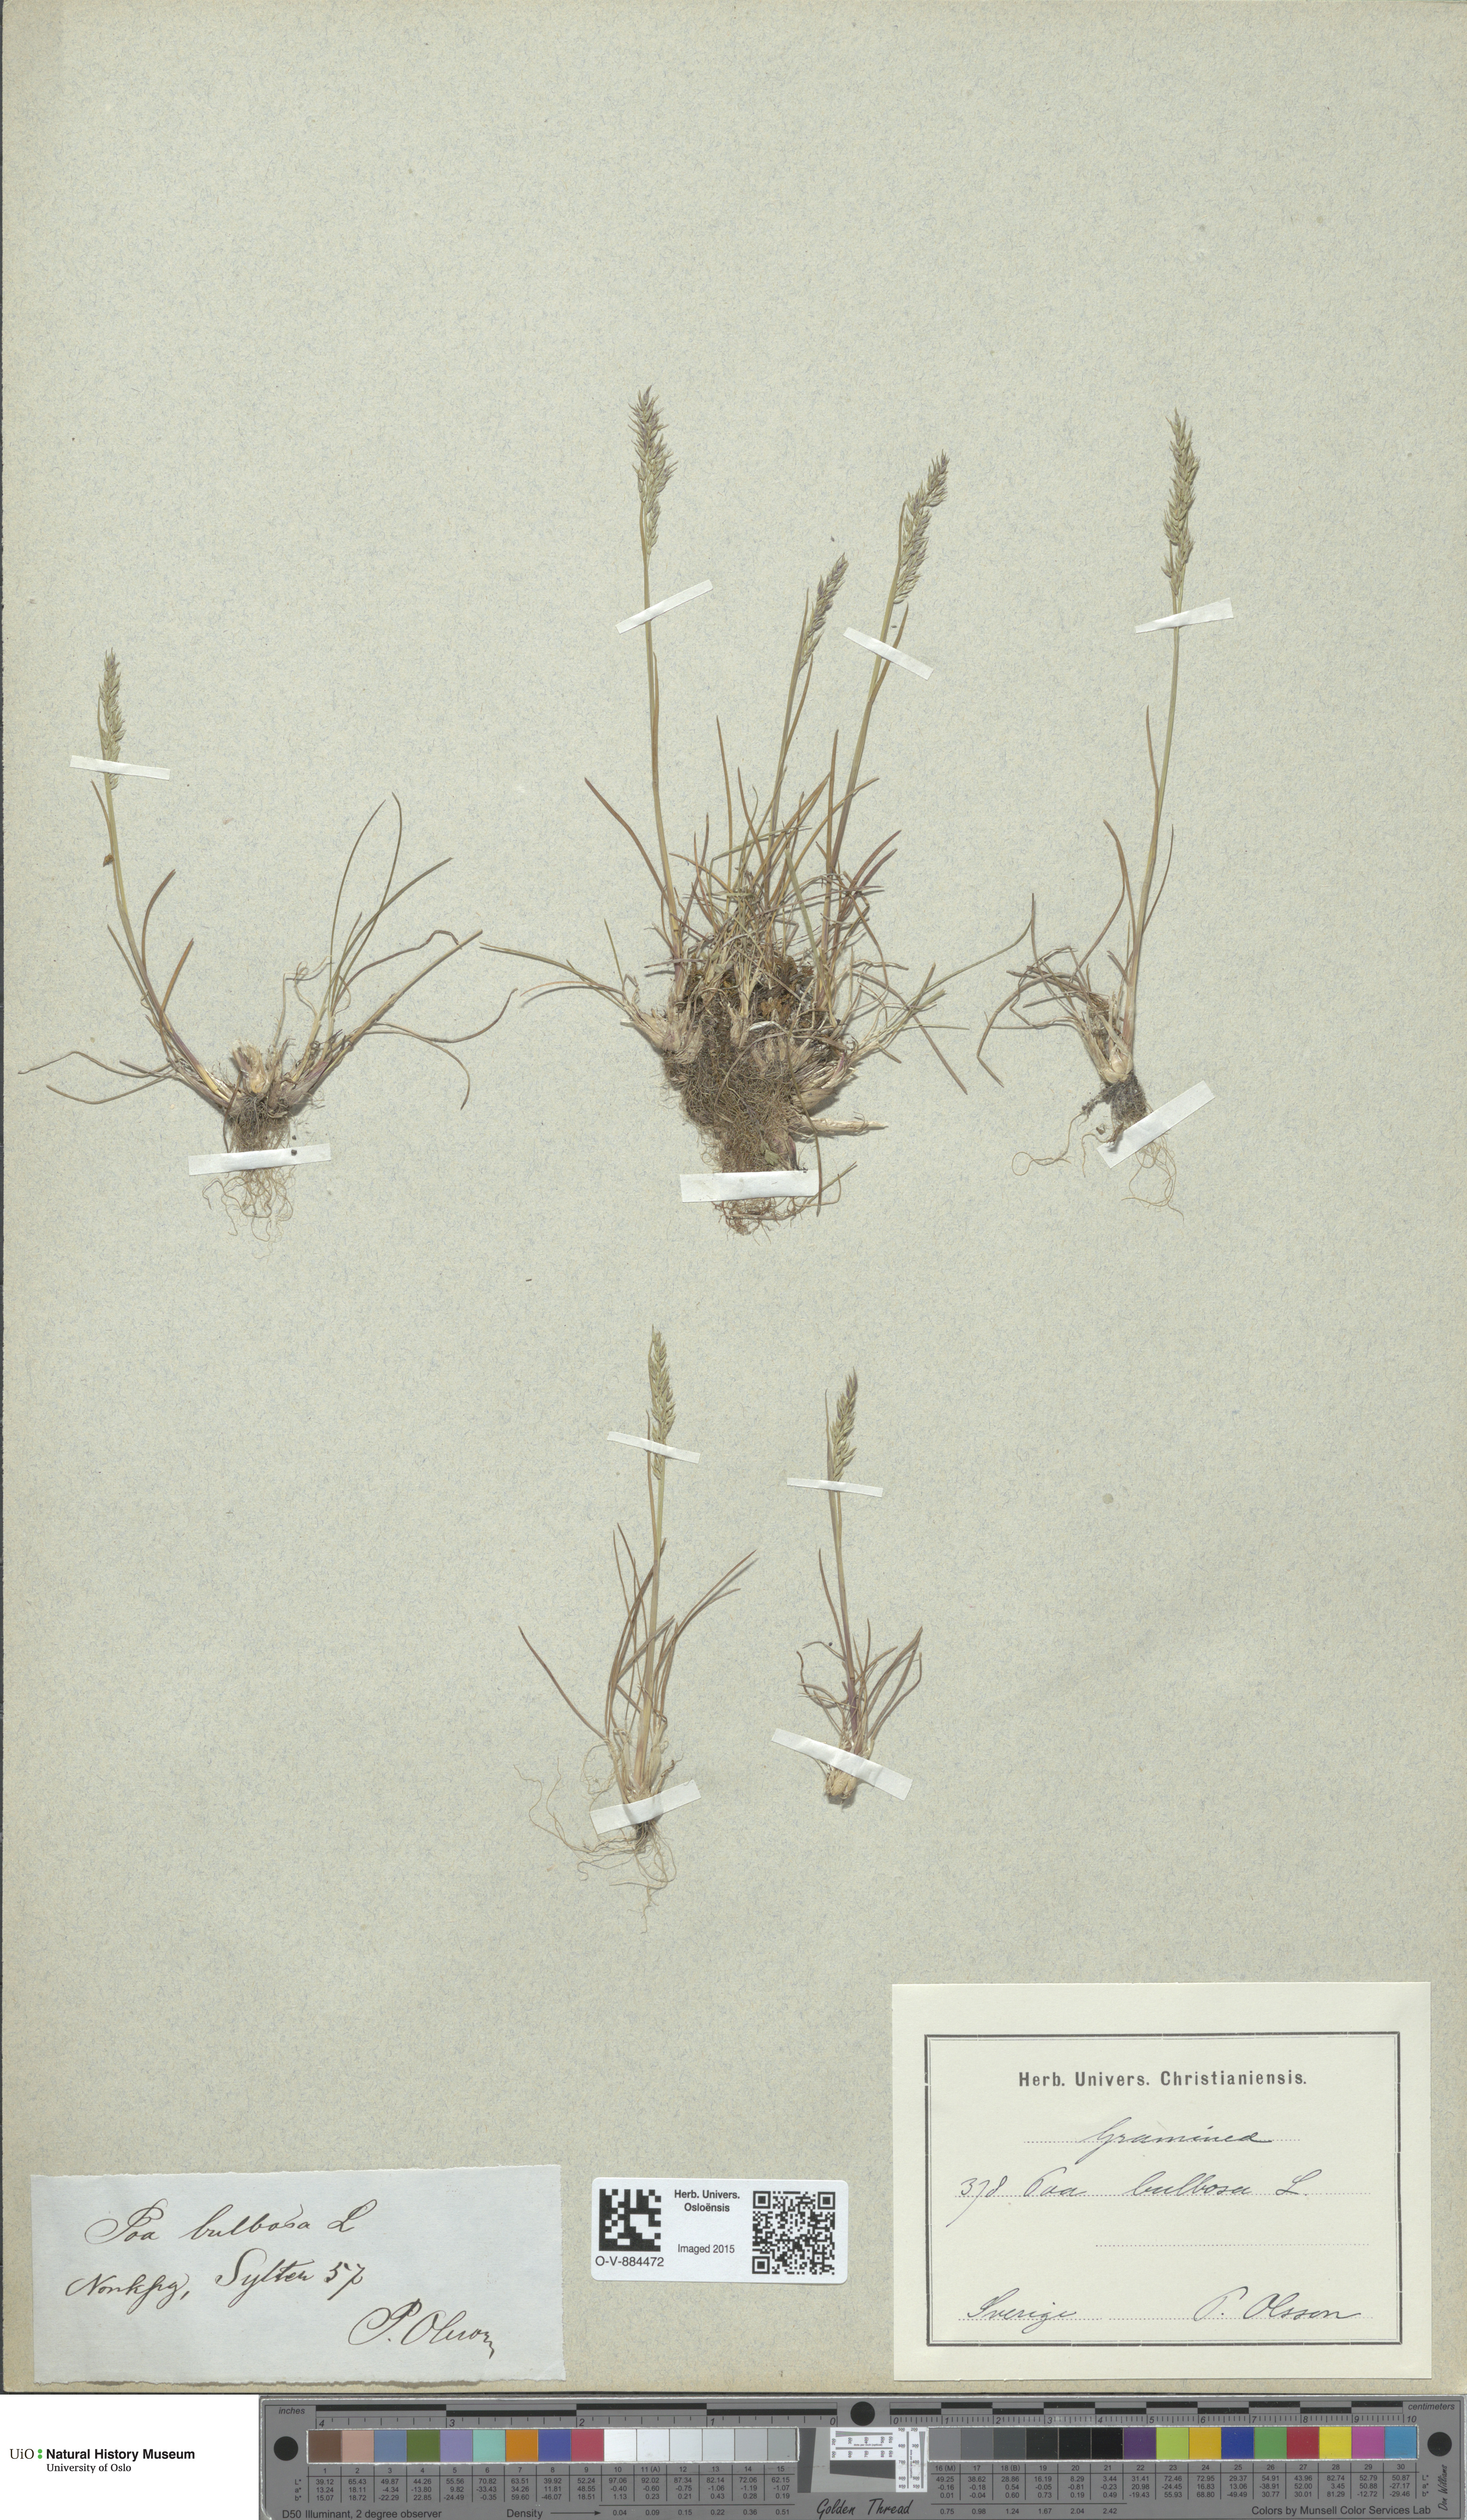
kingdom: Plantae
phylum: Tracheophyta
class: Liliopsida
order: Poales
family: Poaceae
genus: Poa
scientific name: Poa bulbosa
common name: Bulbous bluegrass
